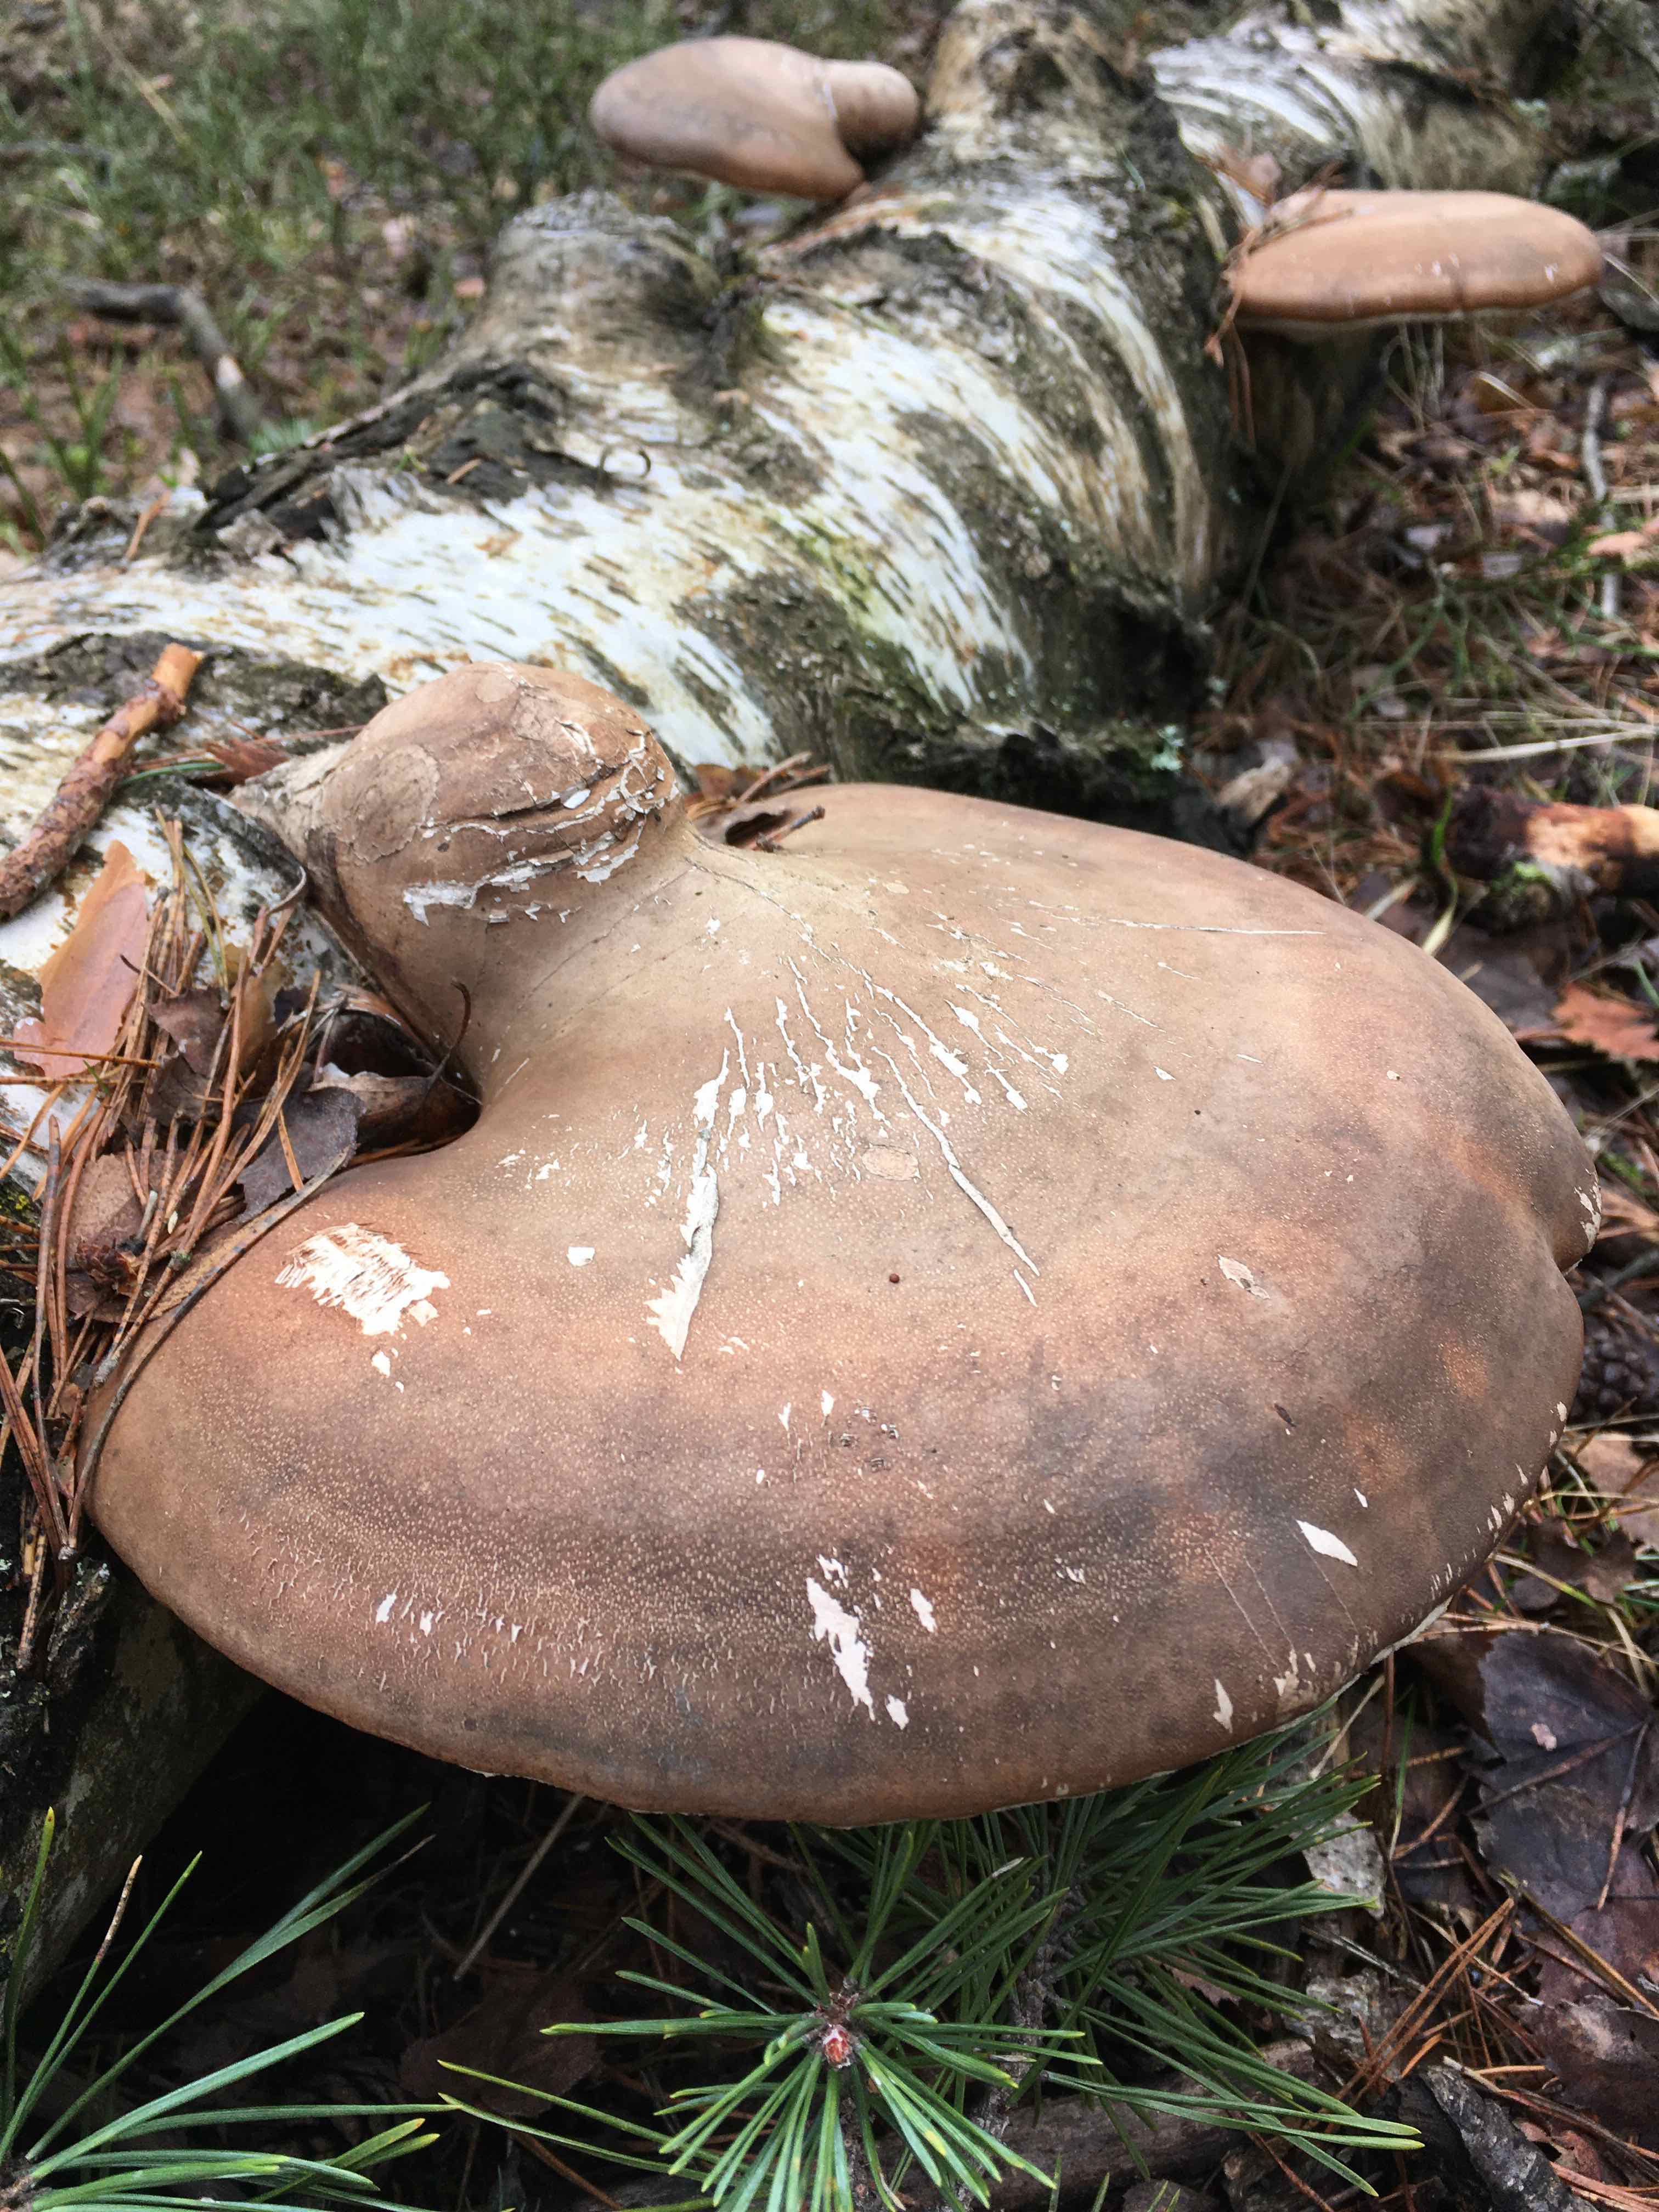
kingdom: Fungi
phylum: Basidiomycota
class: Agaricomycetes
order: Polyporales
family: Fomitopsidaceae
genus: Fomitopsis
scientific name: Fomitopsis betulina
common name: birkeporesvamp
